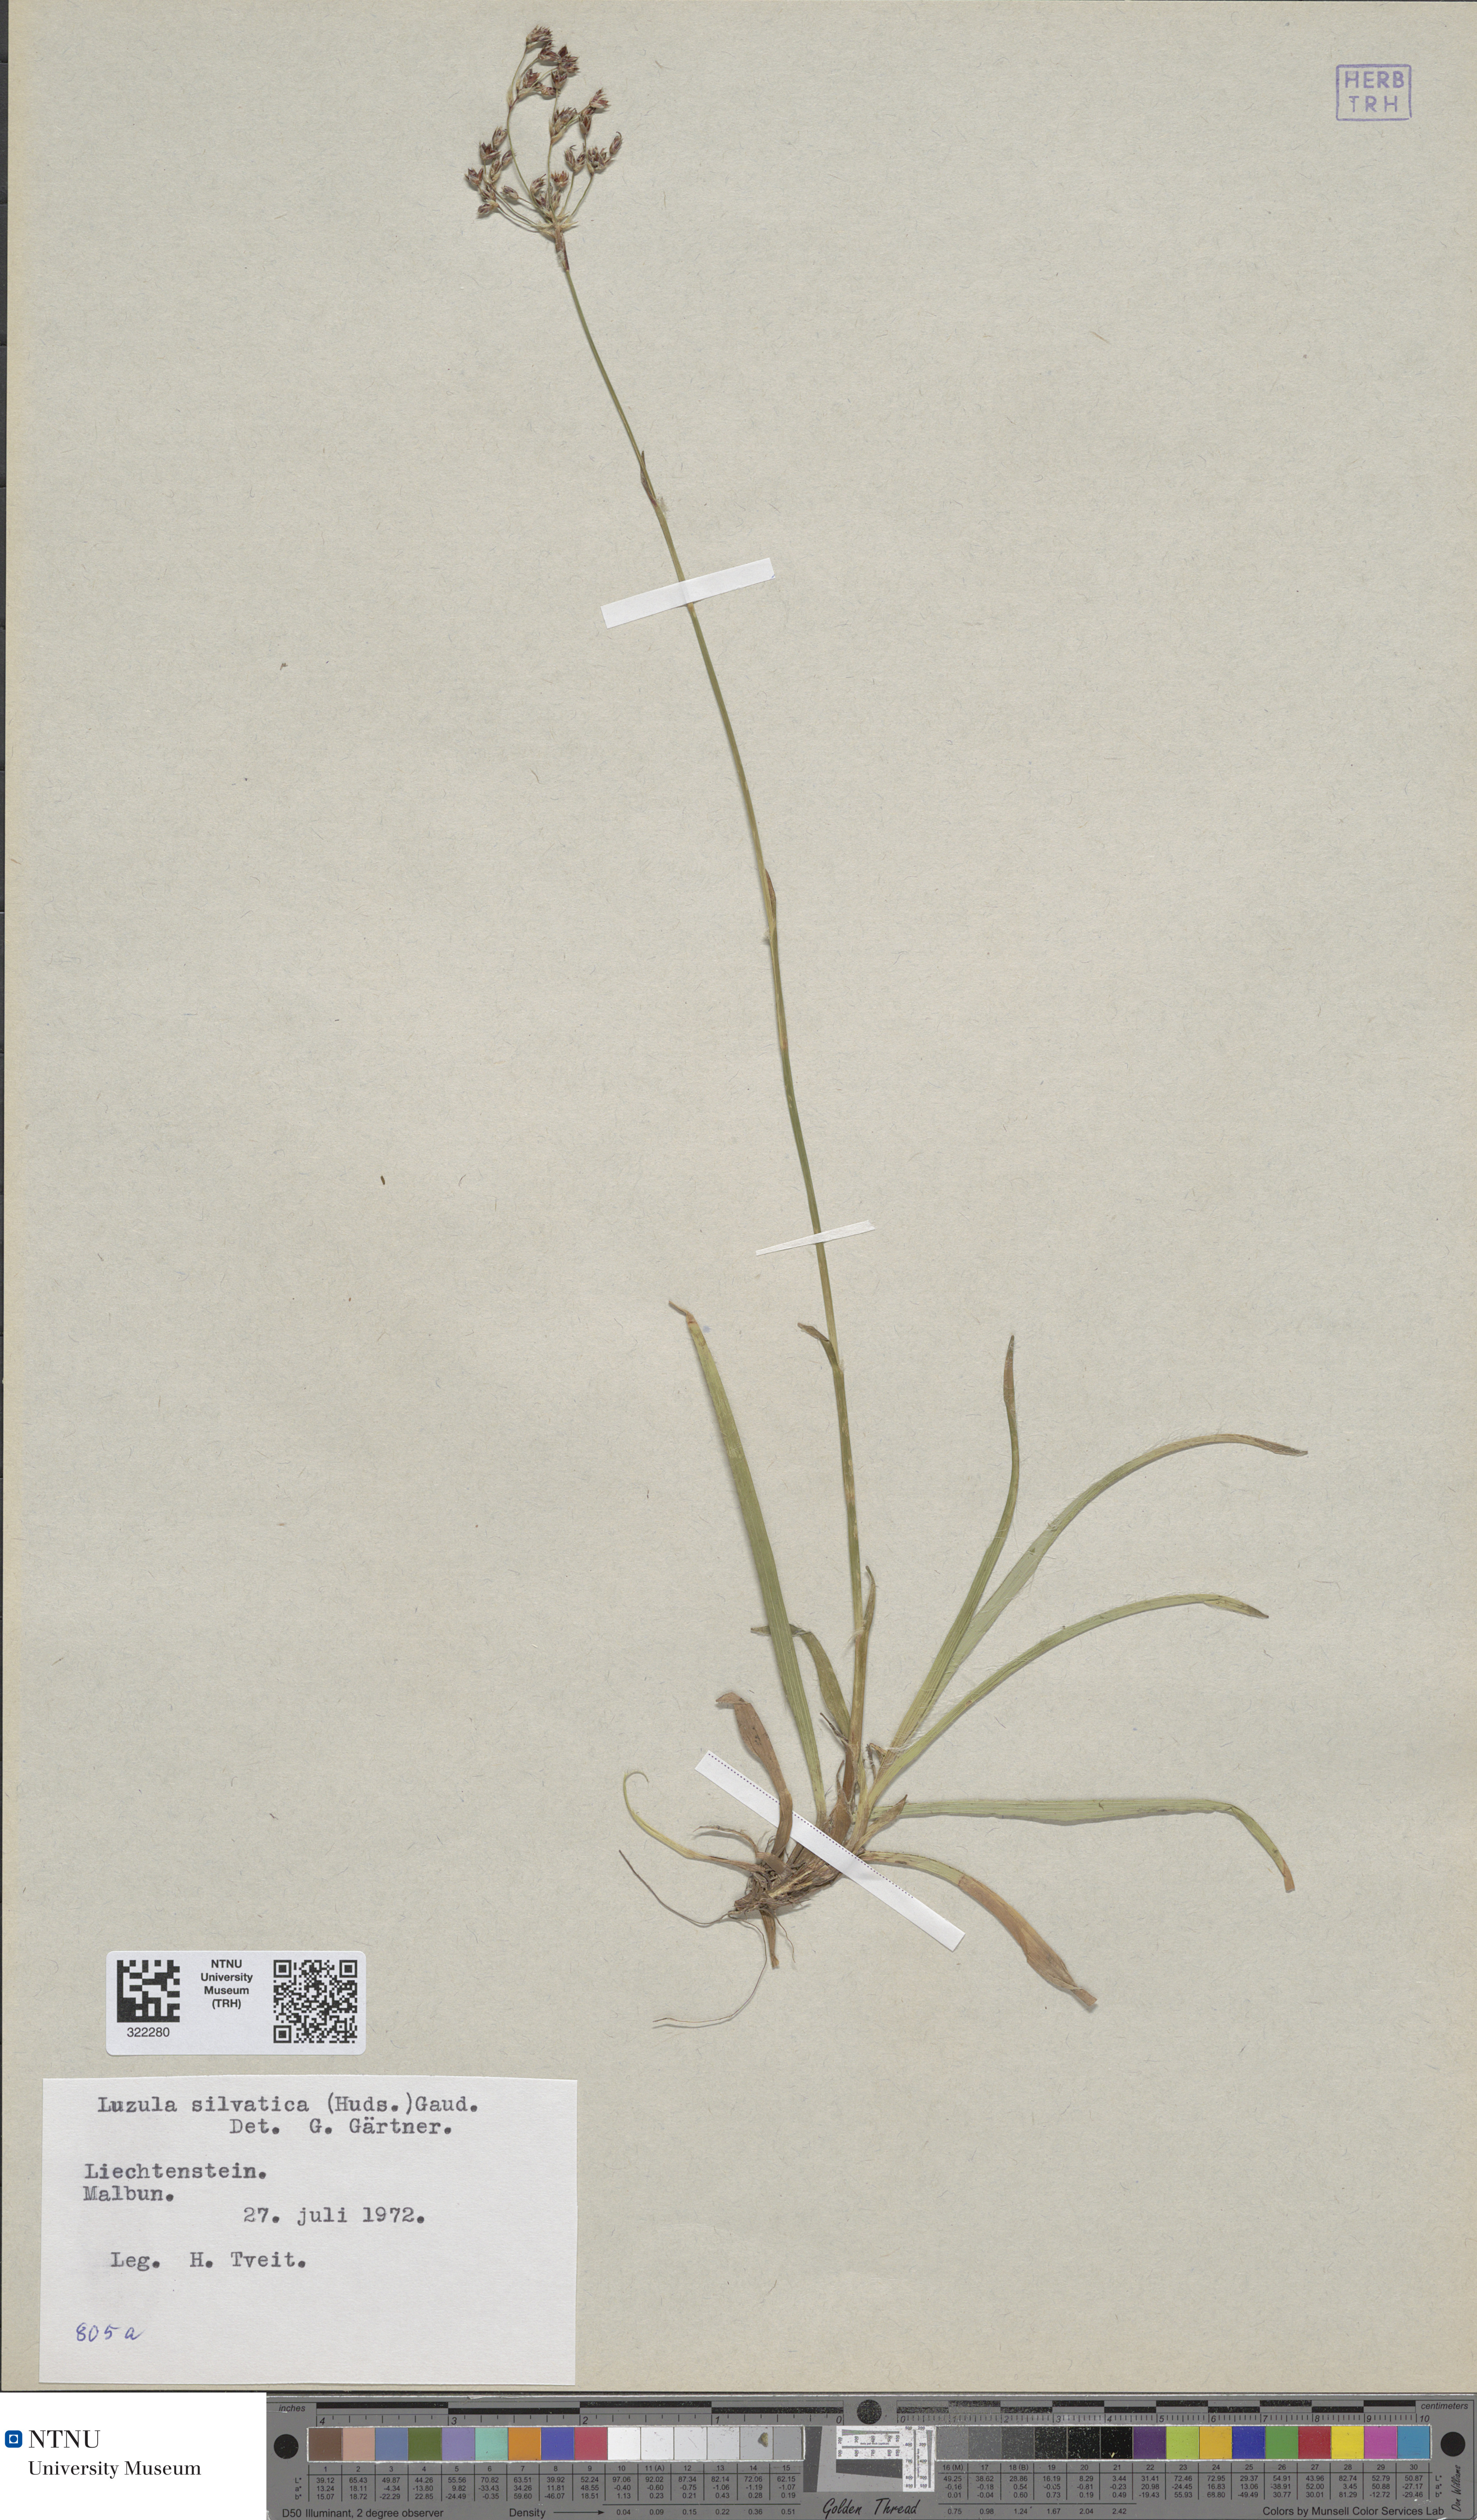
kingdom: Plantae
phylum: Tracheophyta
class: Liliopsida
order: Poales
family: Juncaceae
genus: Luzula
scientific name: Luzula sylvatica
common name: Great wood-rush
